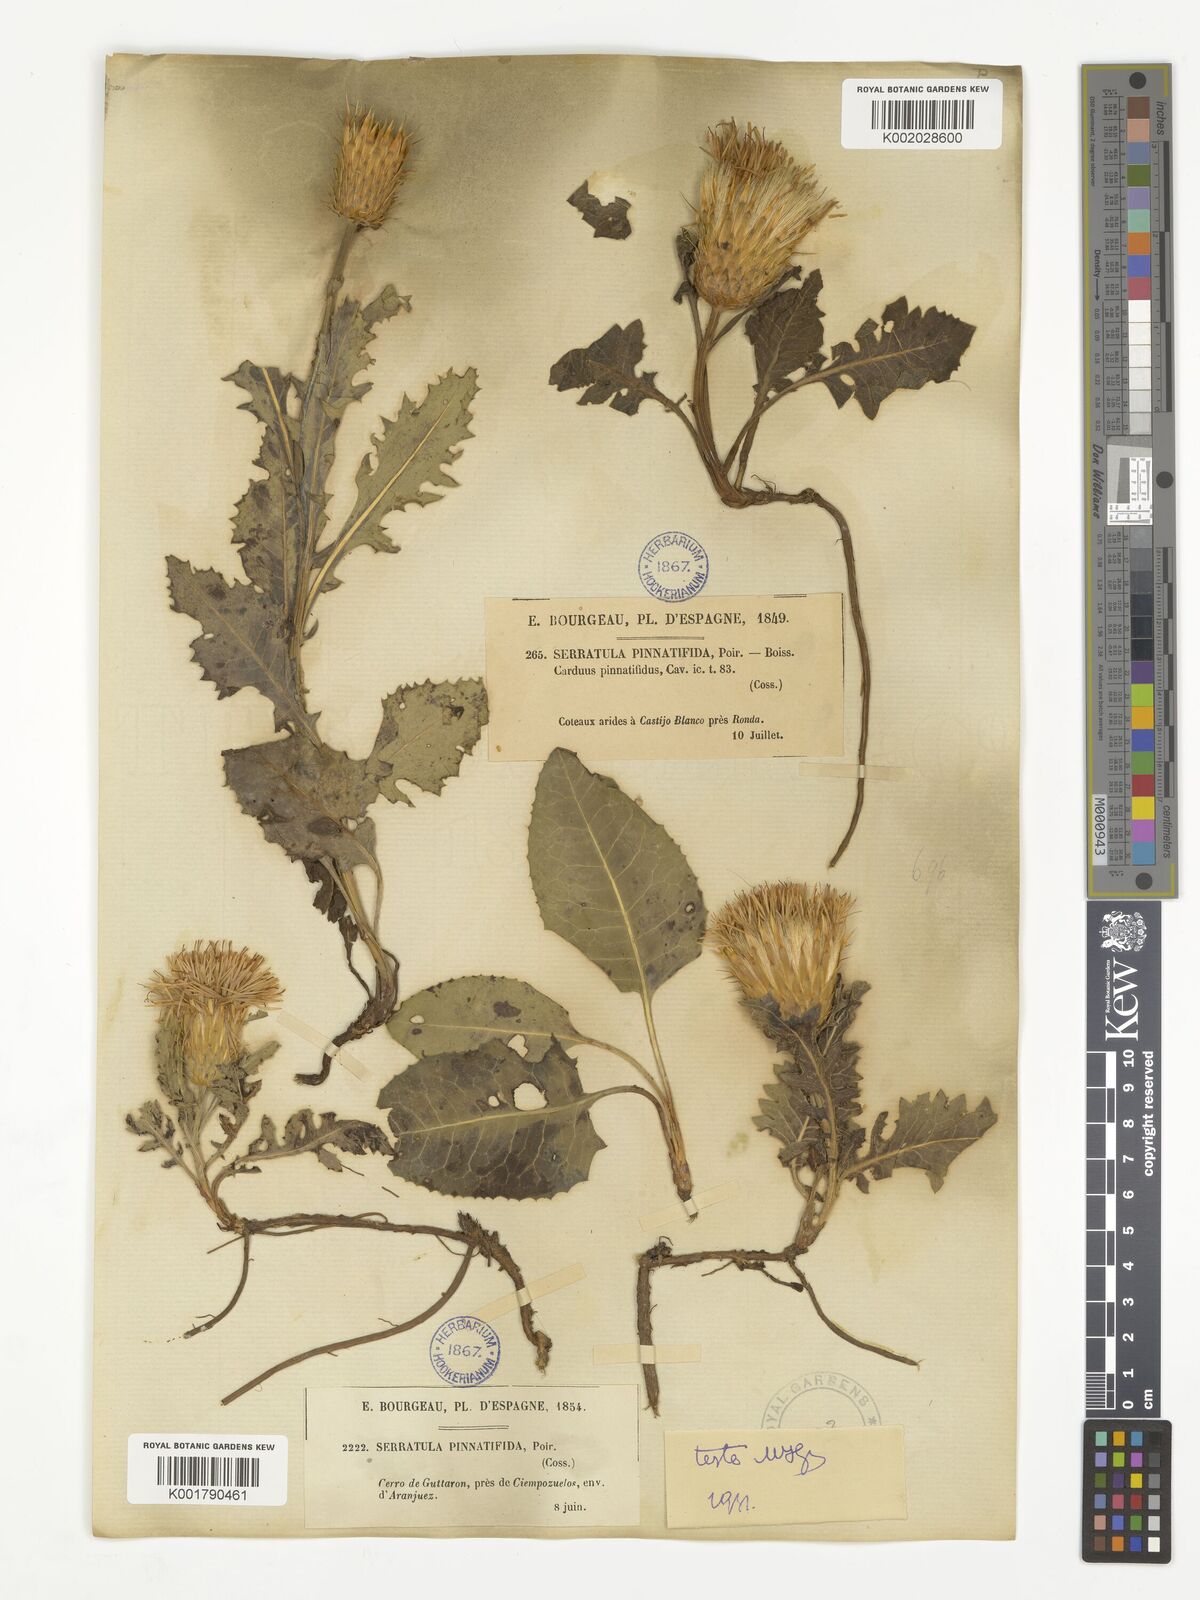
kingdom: Plantae
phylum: Tracheophyta
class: Magnoliopsida
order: Asterales
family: Asteraceae
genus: Klasea
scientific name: Klasea pinnatifida
